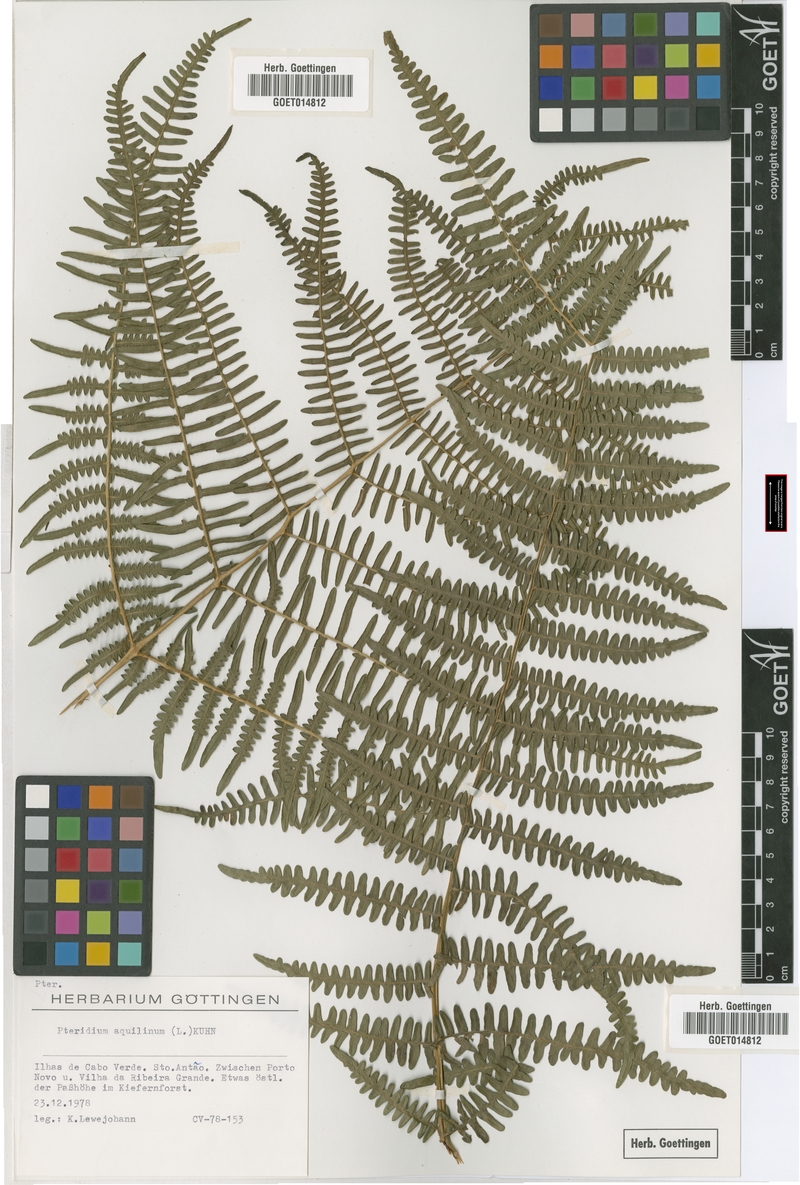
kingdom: Plantae
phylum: Tracheophyta
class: Polypodiopsida
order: Polypodiales
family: Dennstaedtiaceae
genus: Pteridium
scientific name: Pteridium aquilinum
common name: Bracken
